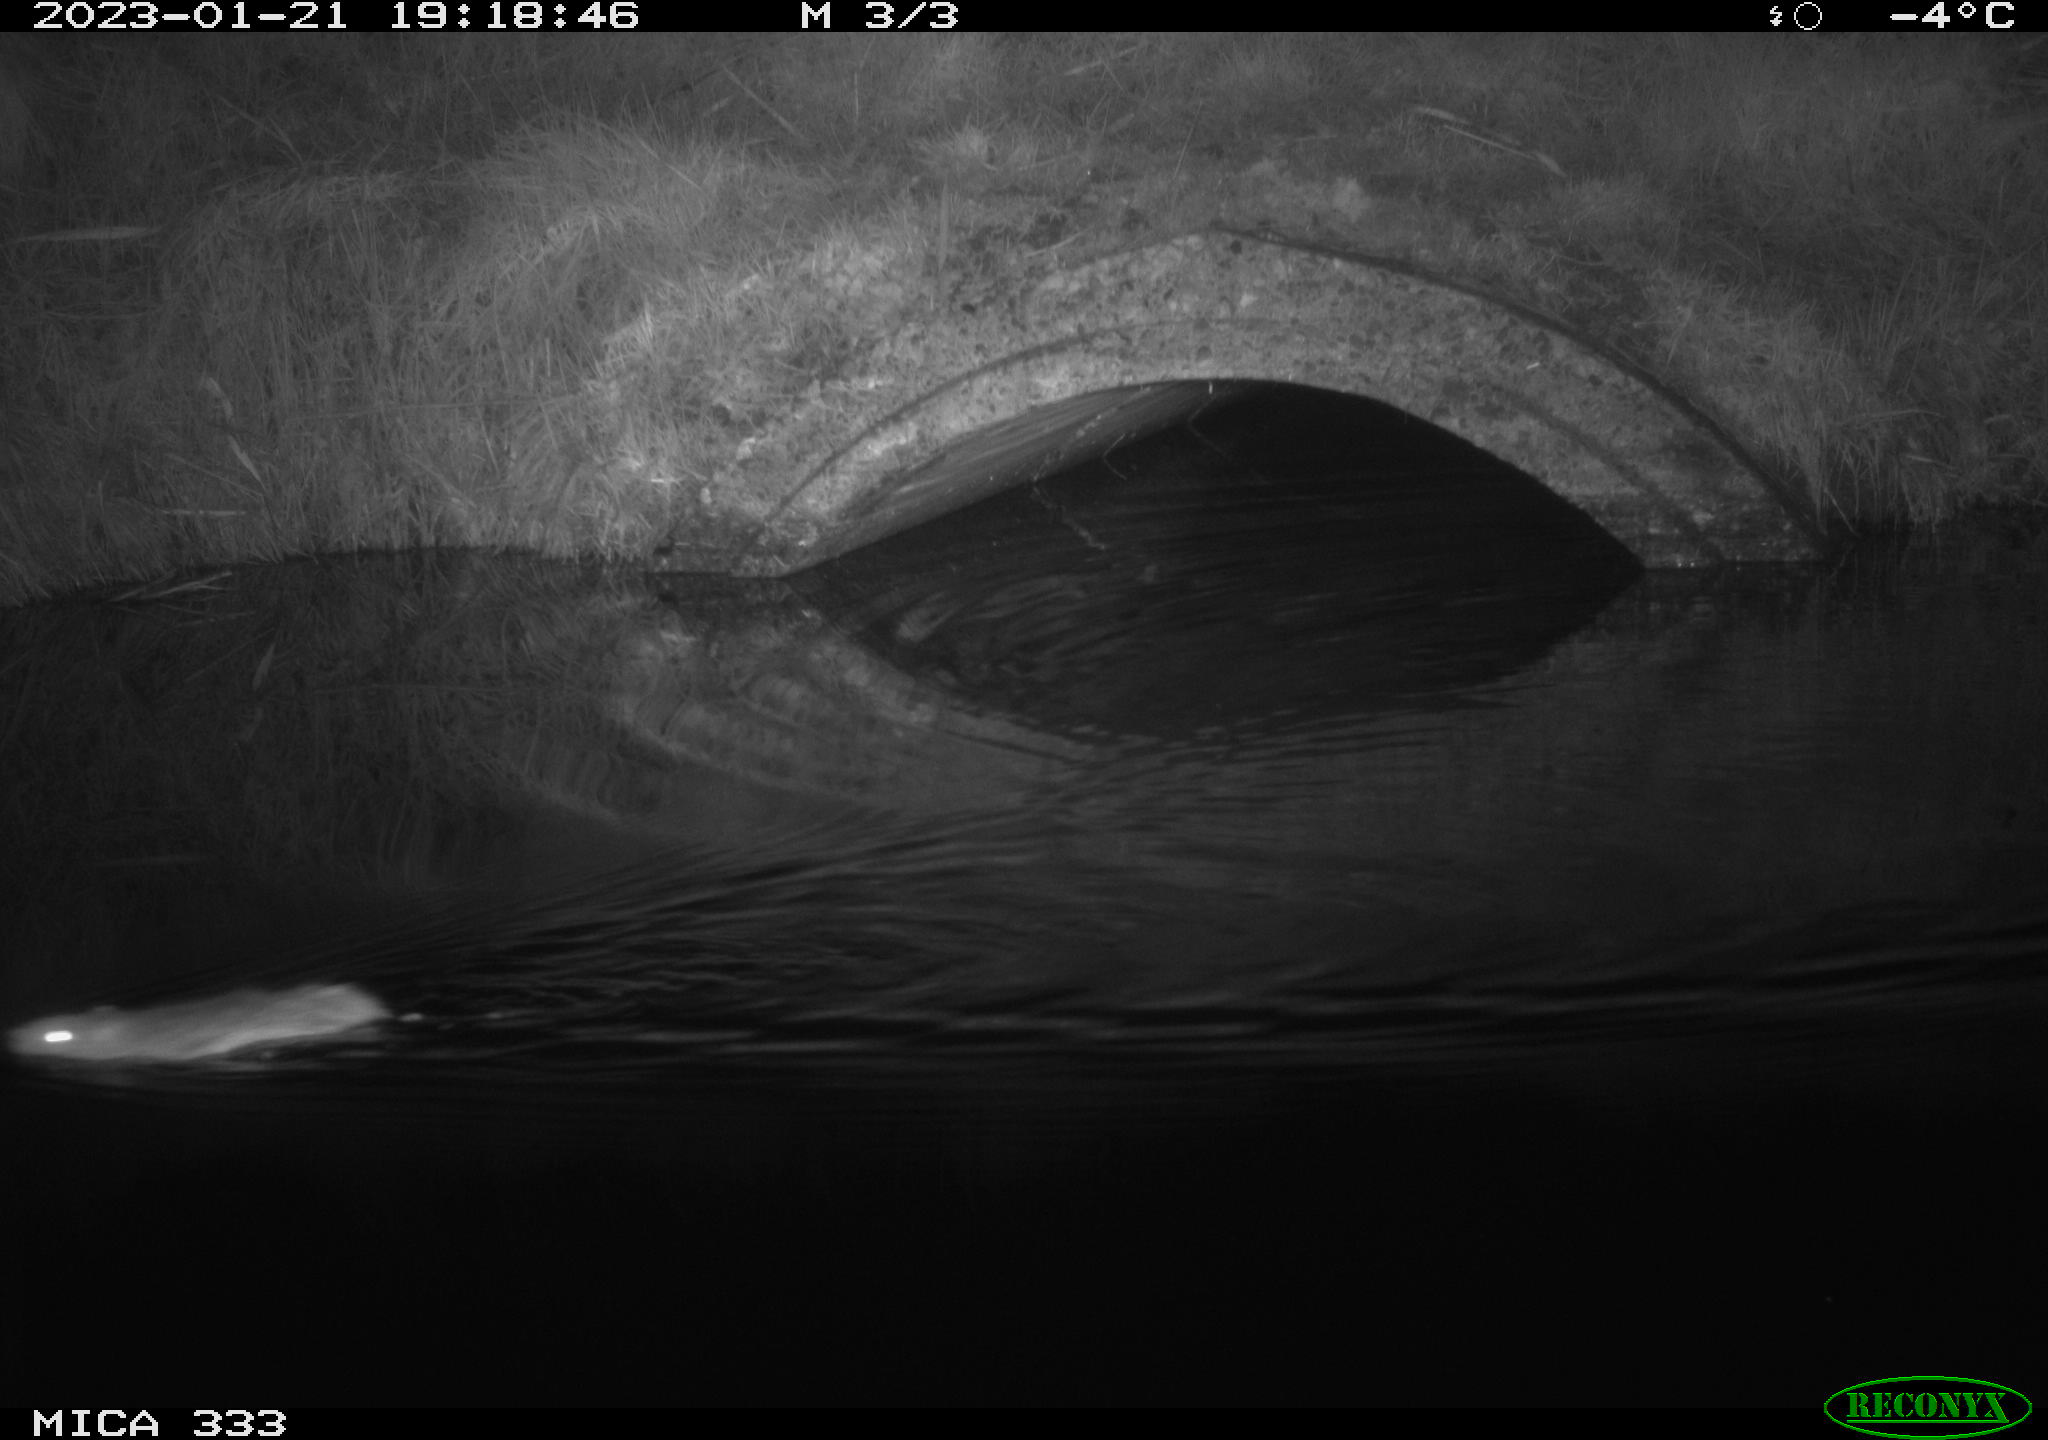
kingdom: Animalia
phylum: Chordata
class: Mammalia
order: Rodentia
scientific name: Rodentia
